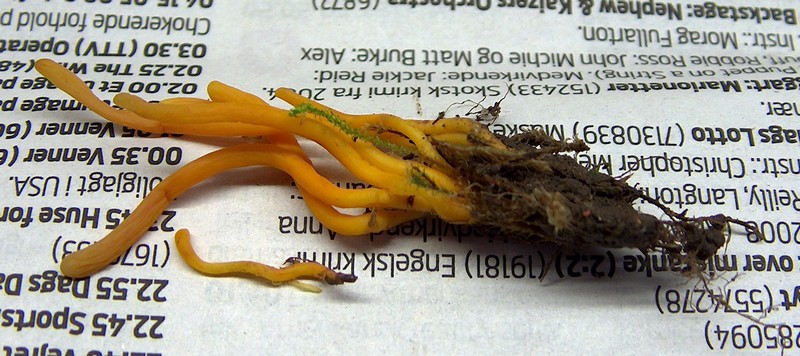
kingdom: Fungi
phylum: Basidiomycota
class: Agaricomycetes
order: Agaricales
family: Clavariaceae
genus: Clavulinopsis
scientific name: Clavulinopsis helvola
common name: orangegul køllesvamp
